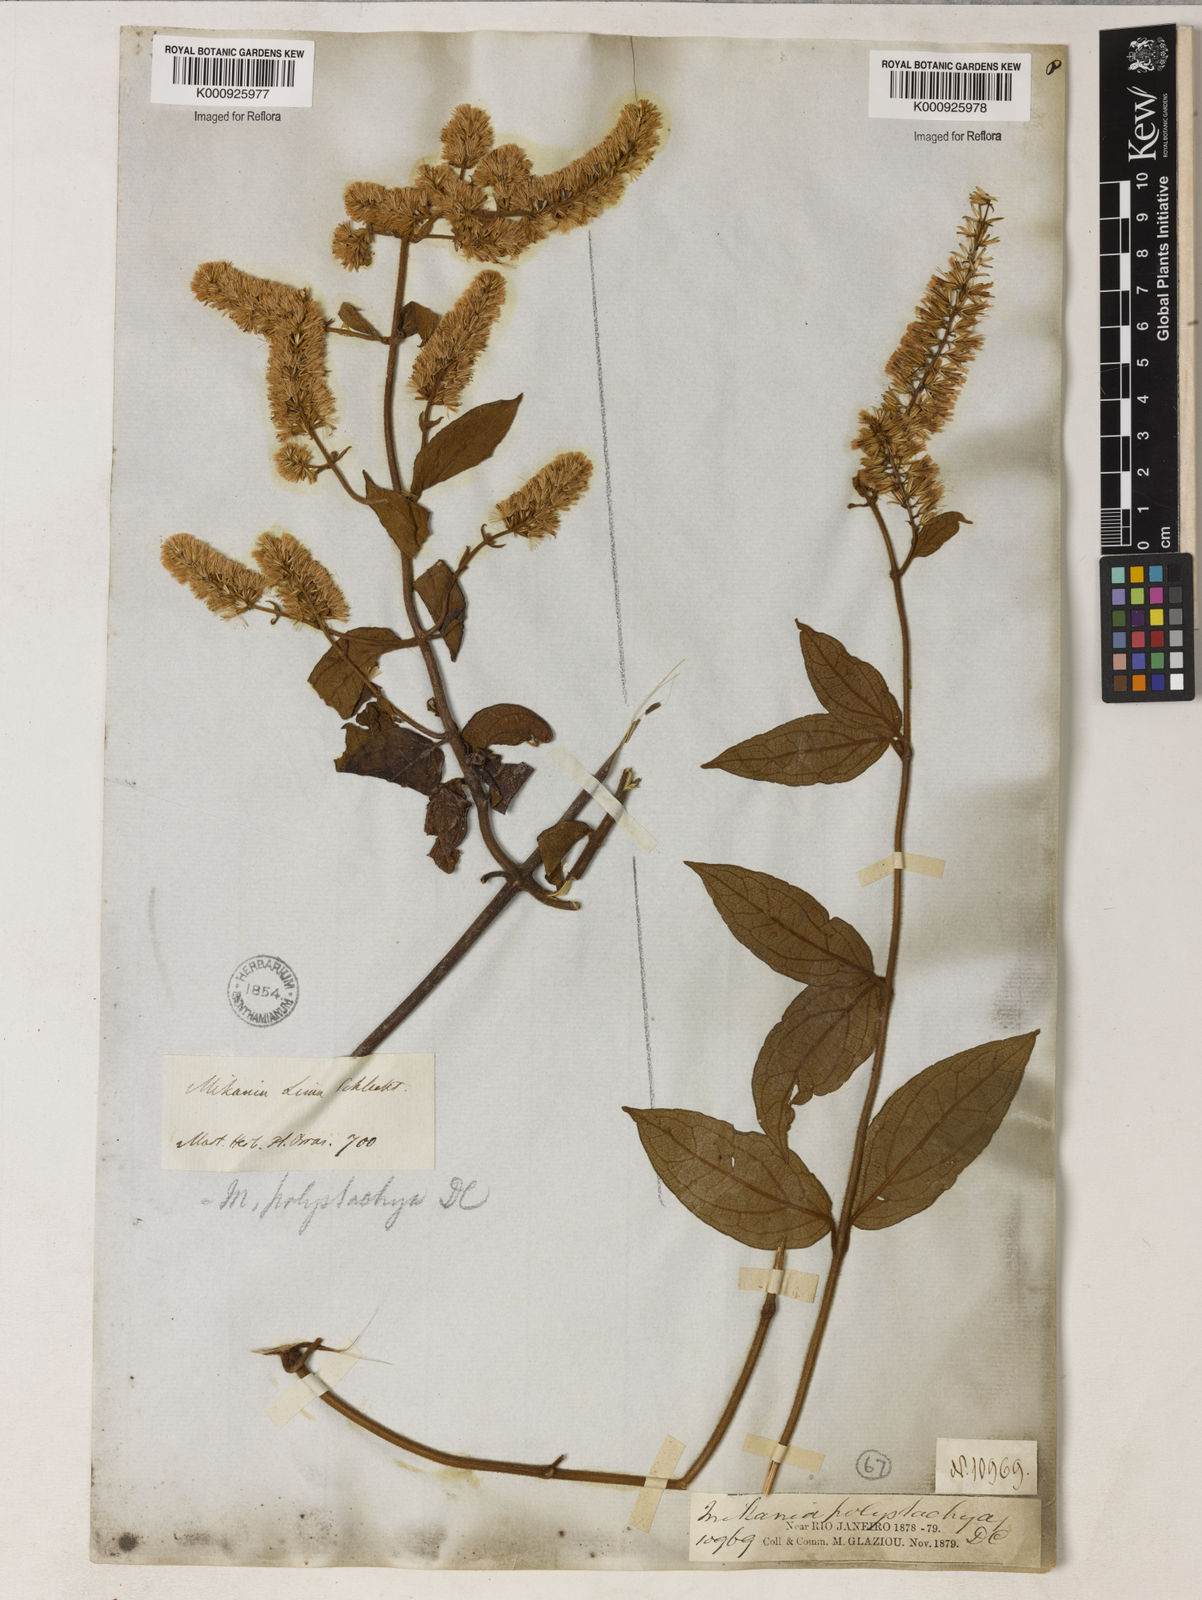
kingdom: Plantae
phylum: Tracheophyta
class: Magnoliopsida
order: Asterales
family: Asteraceae
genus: Mikania
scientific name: Mikania psilostachya
